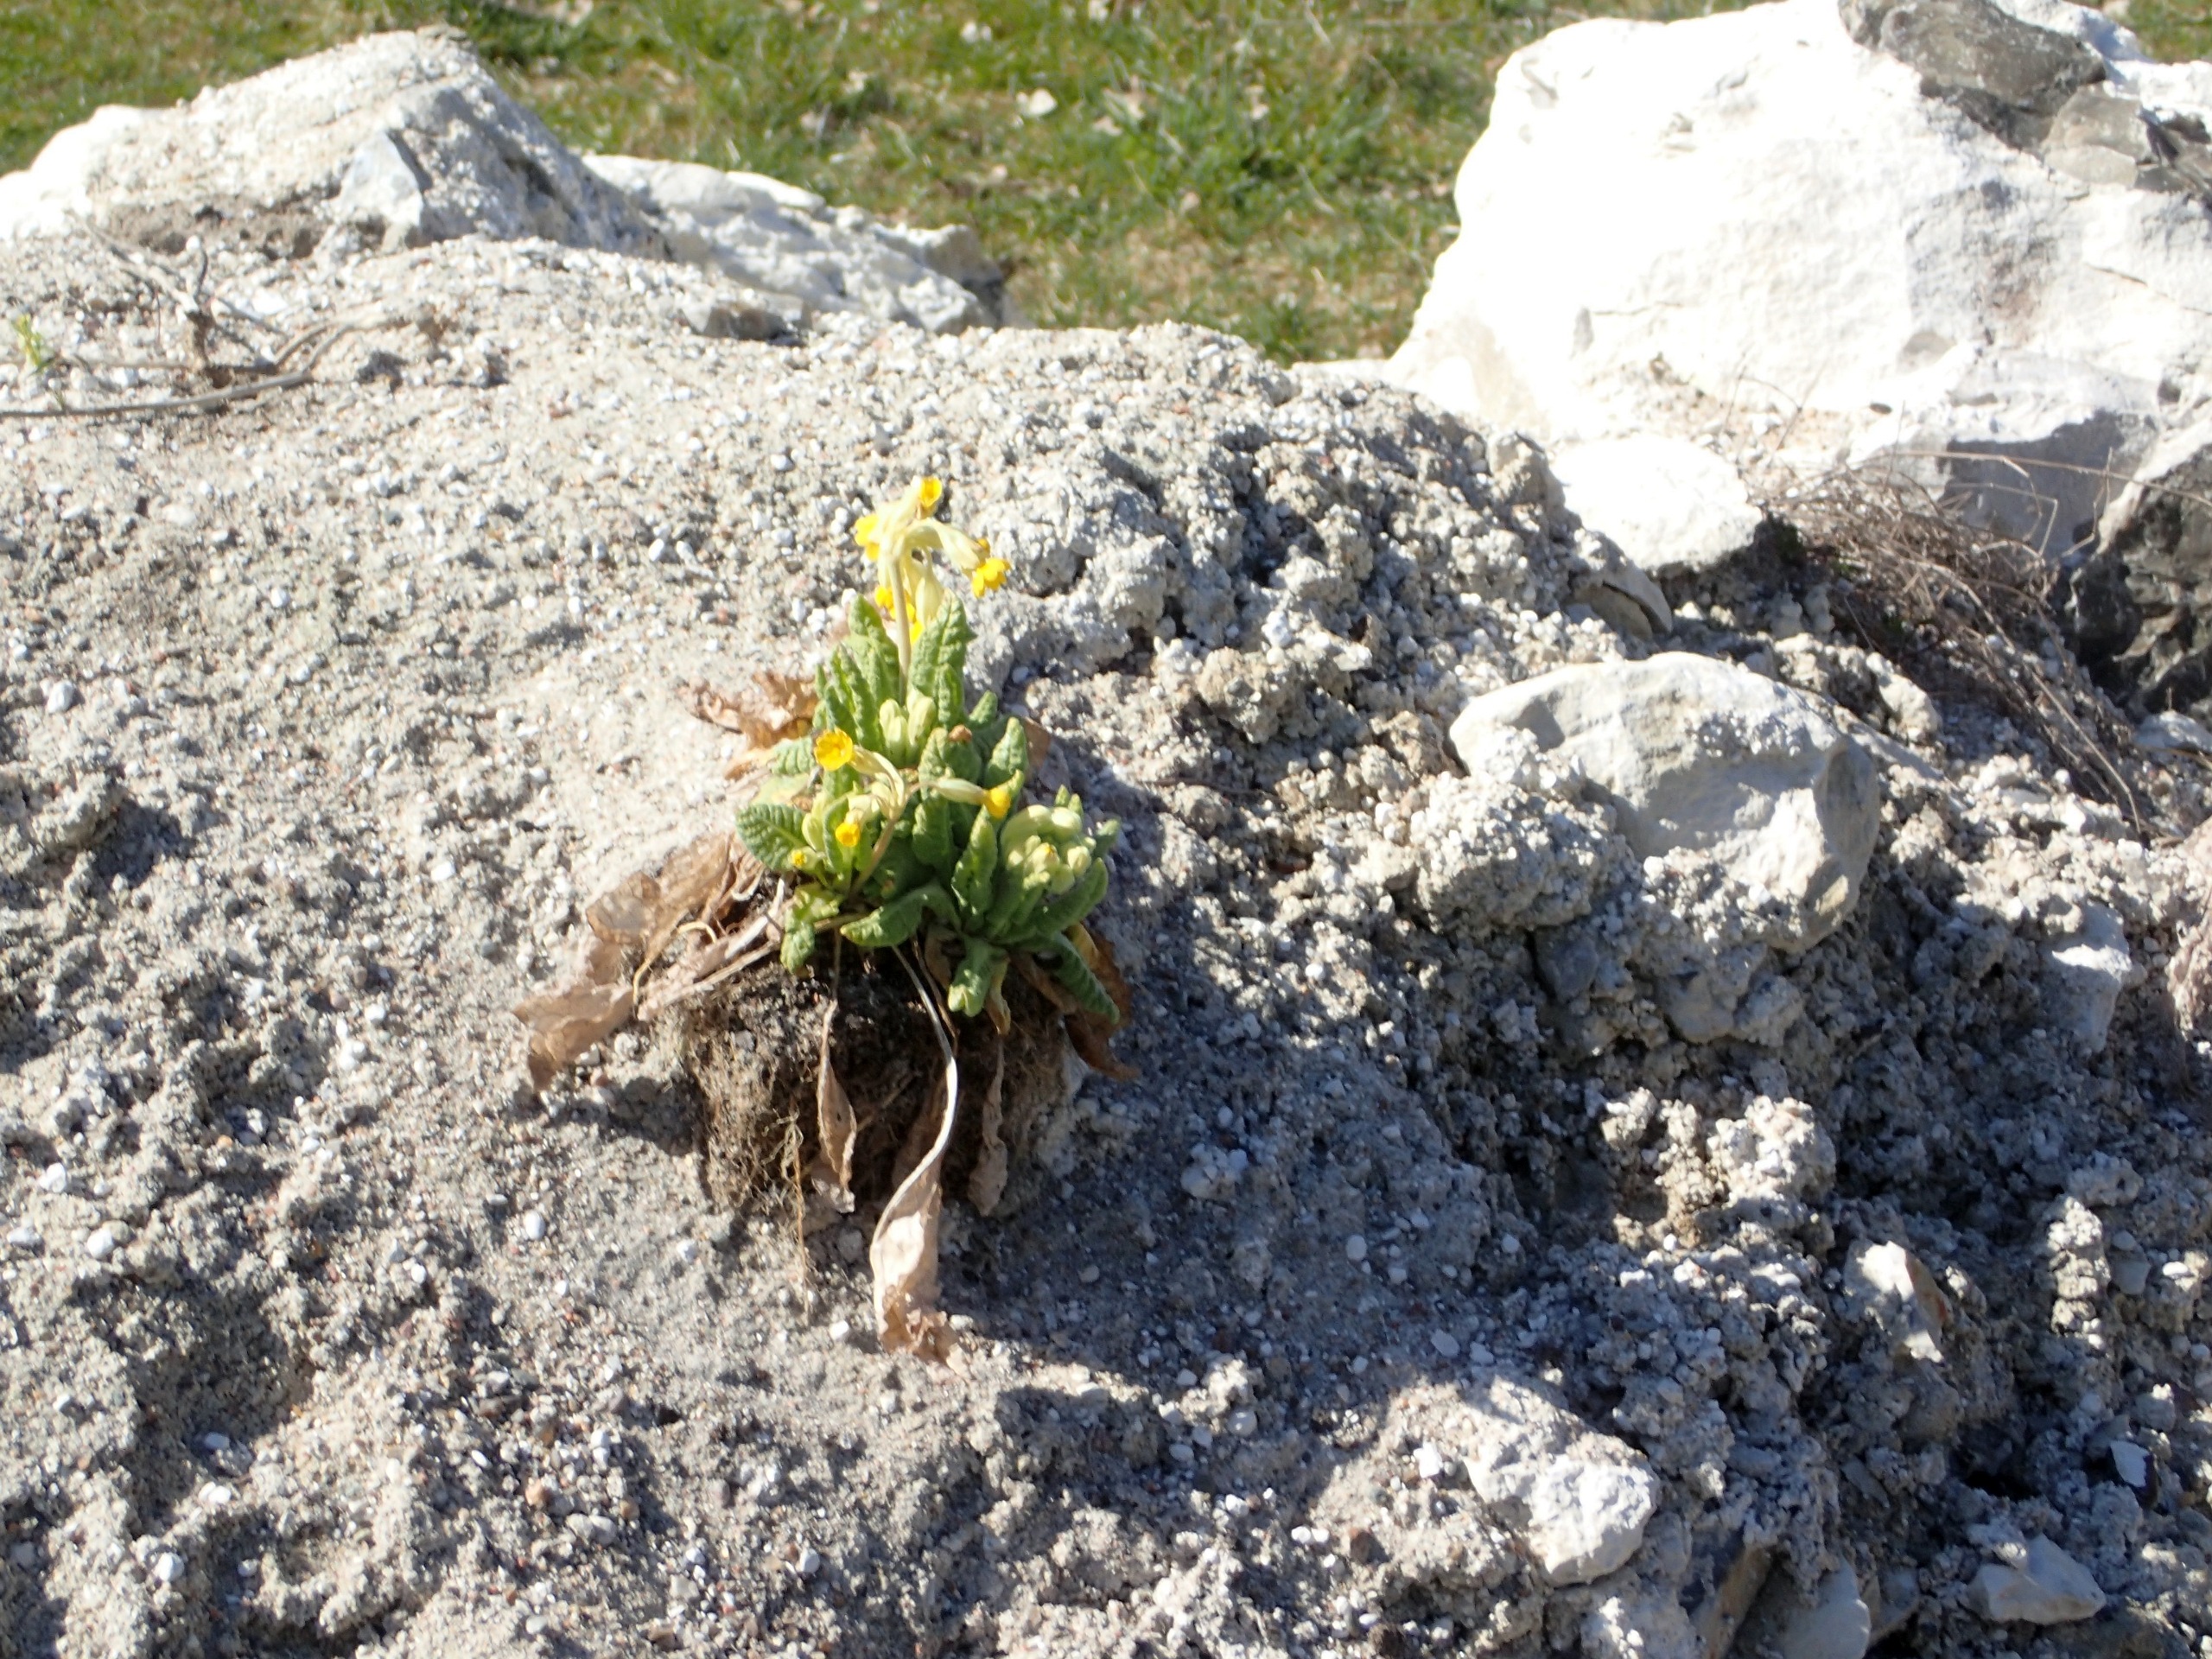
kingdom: Plantae
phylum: Tracheophyta
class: Magnoliopsida
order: Ericales
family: Primulaceae
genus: Primula
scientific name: Primula veris
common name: Hulkravet kodriver
